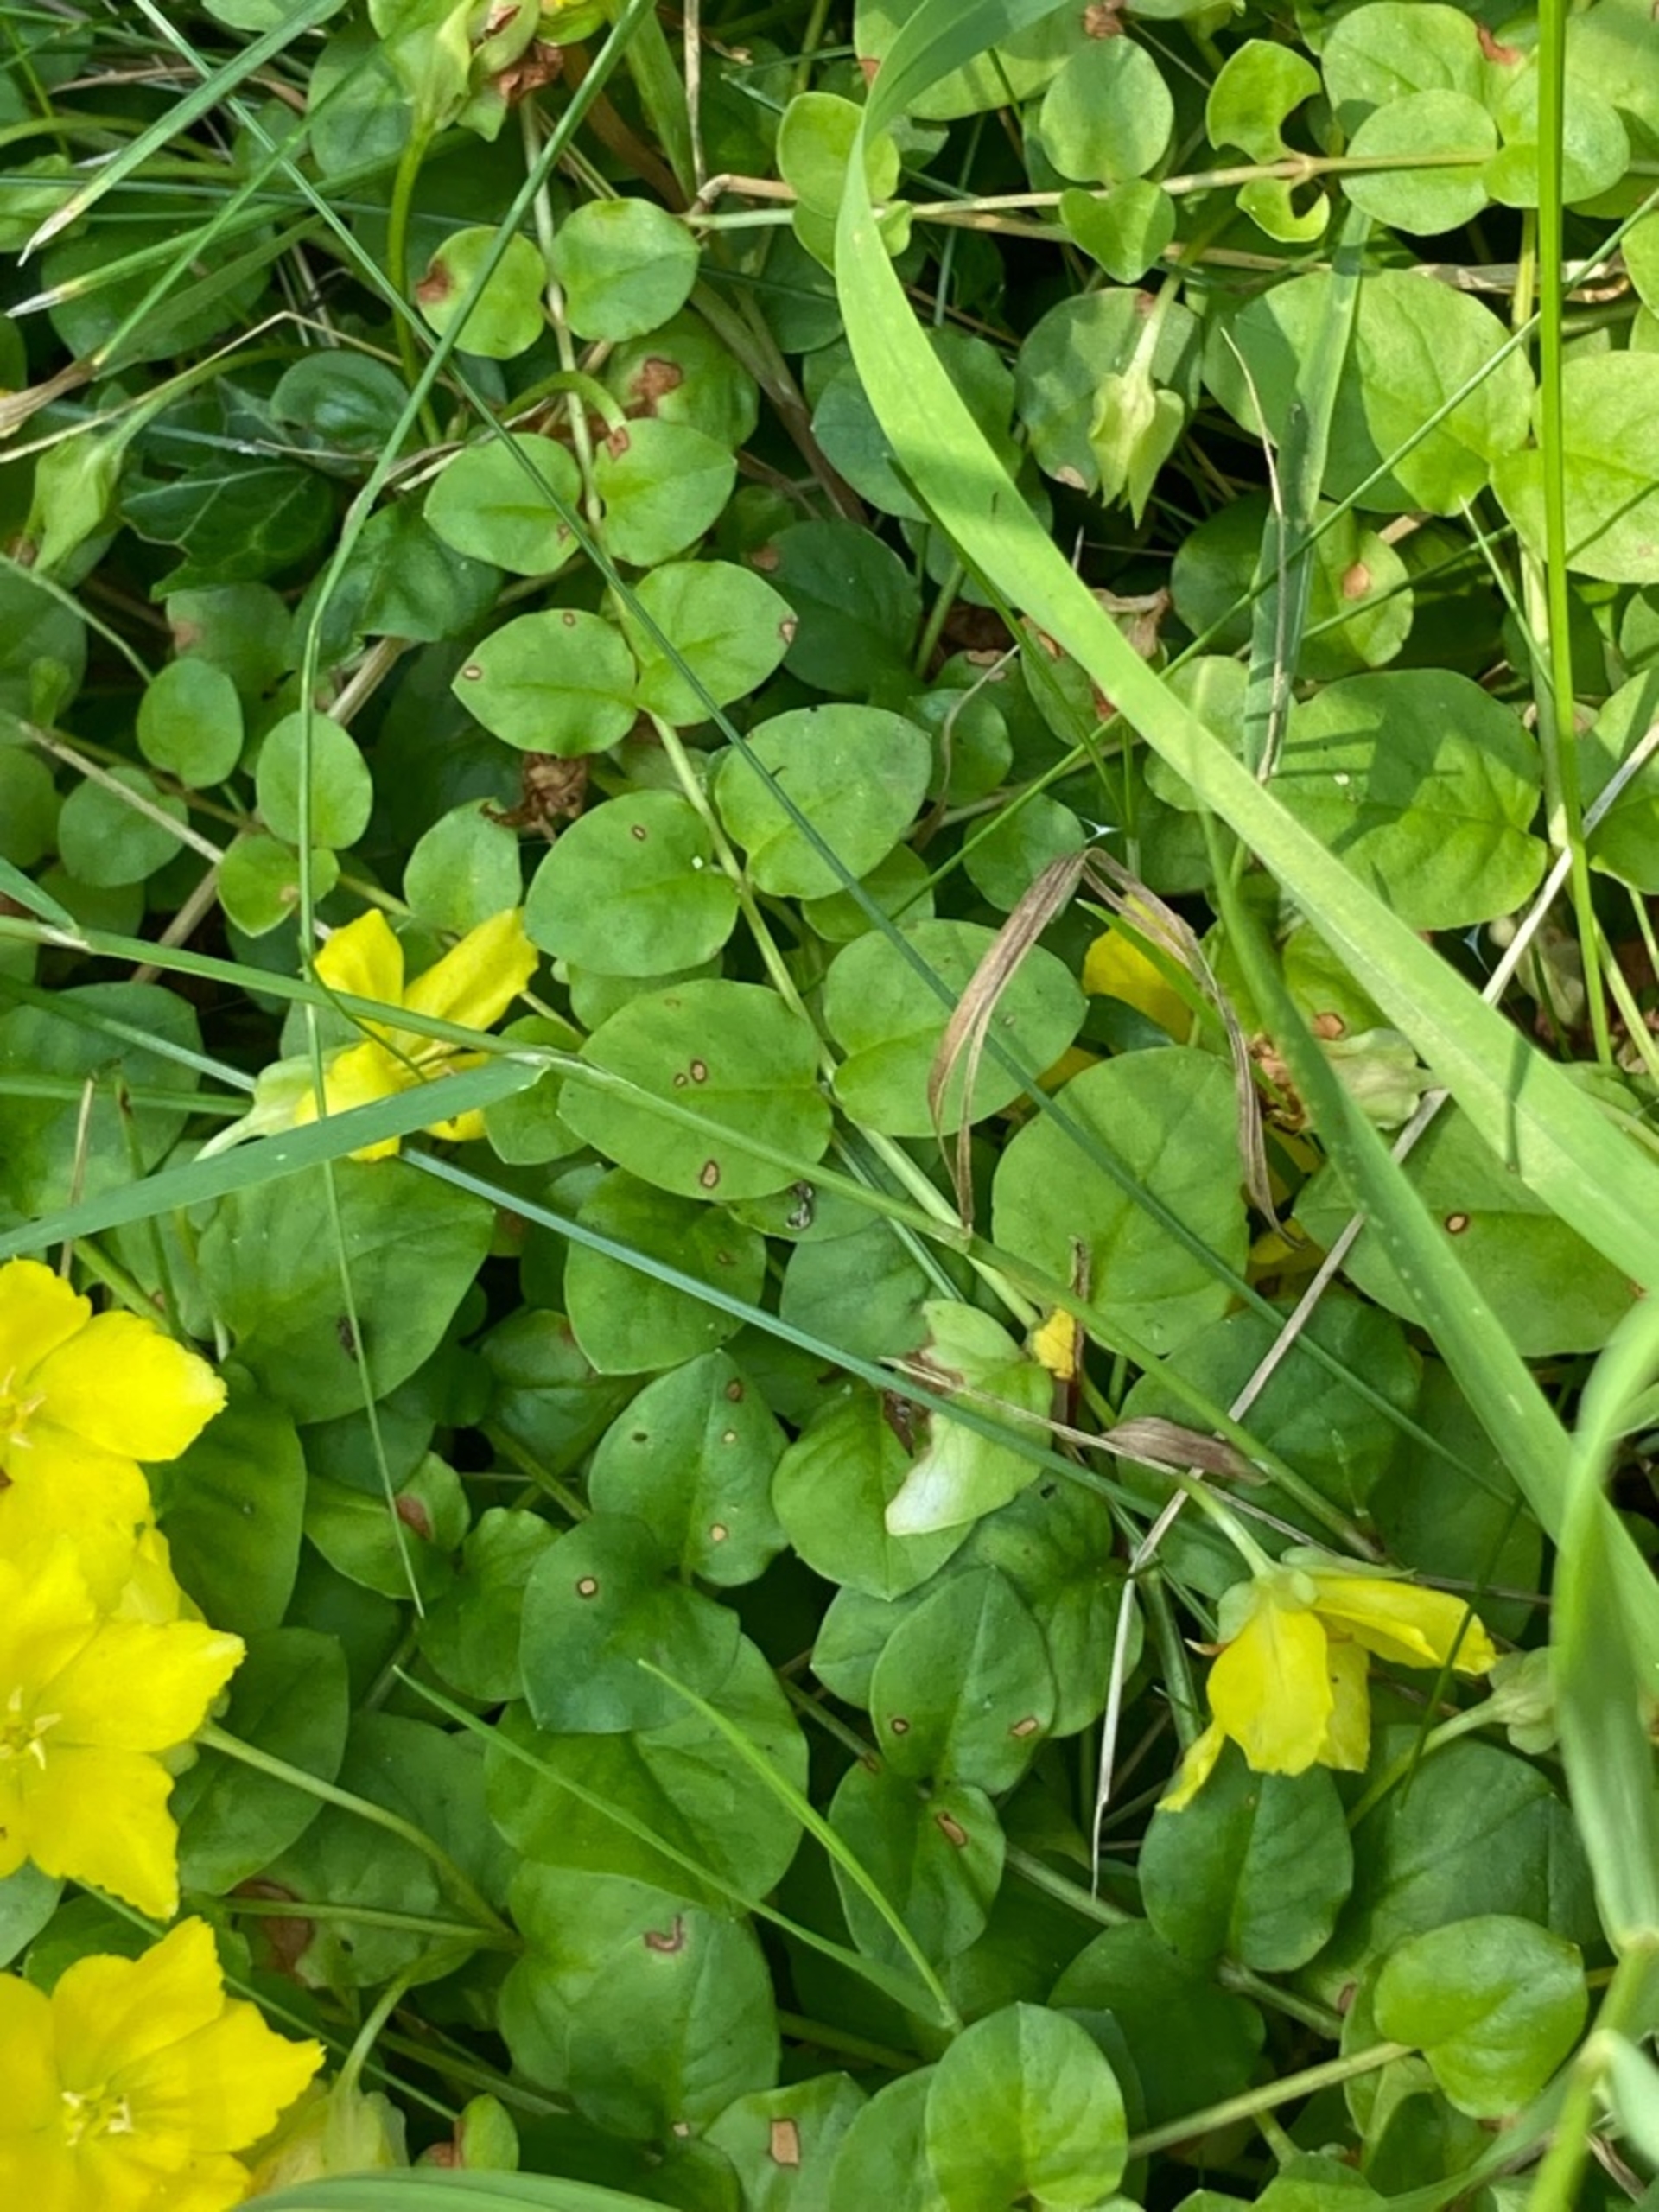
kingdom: Plantae
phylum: Tracheophyta
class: Magnoliopsida
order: Ericales
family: Primulaceae
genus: Lysimachia
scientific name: Lysimachia nummularia
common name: Pengebladet fredløs
